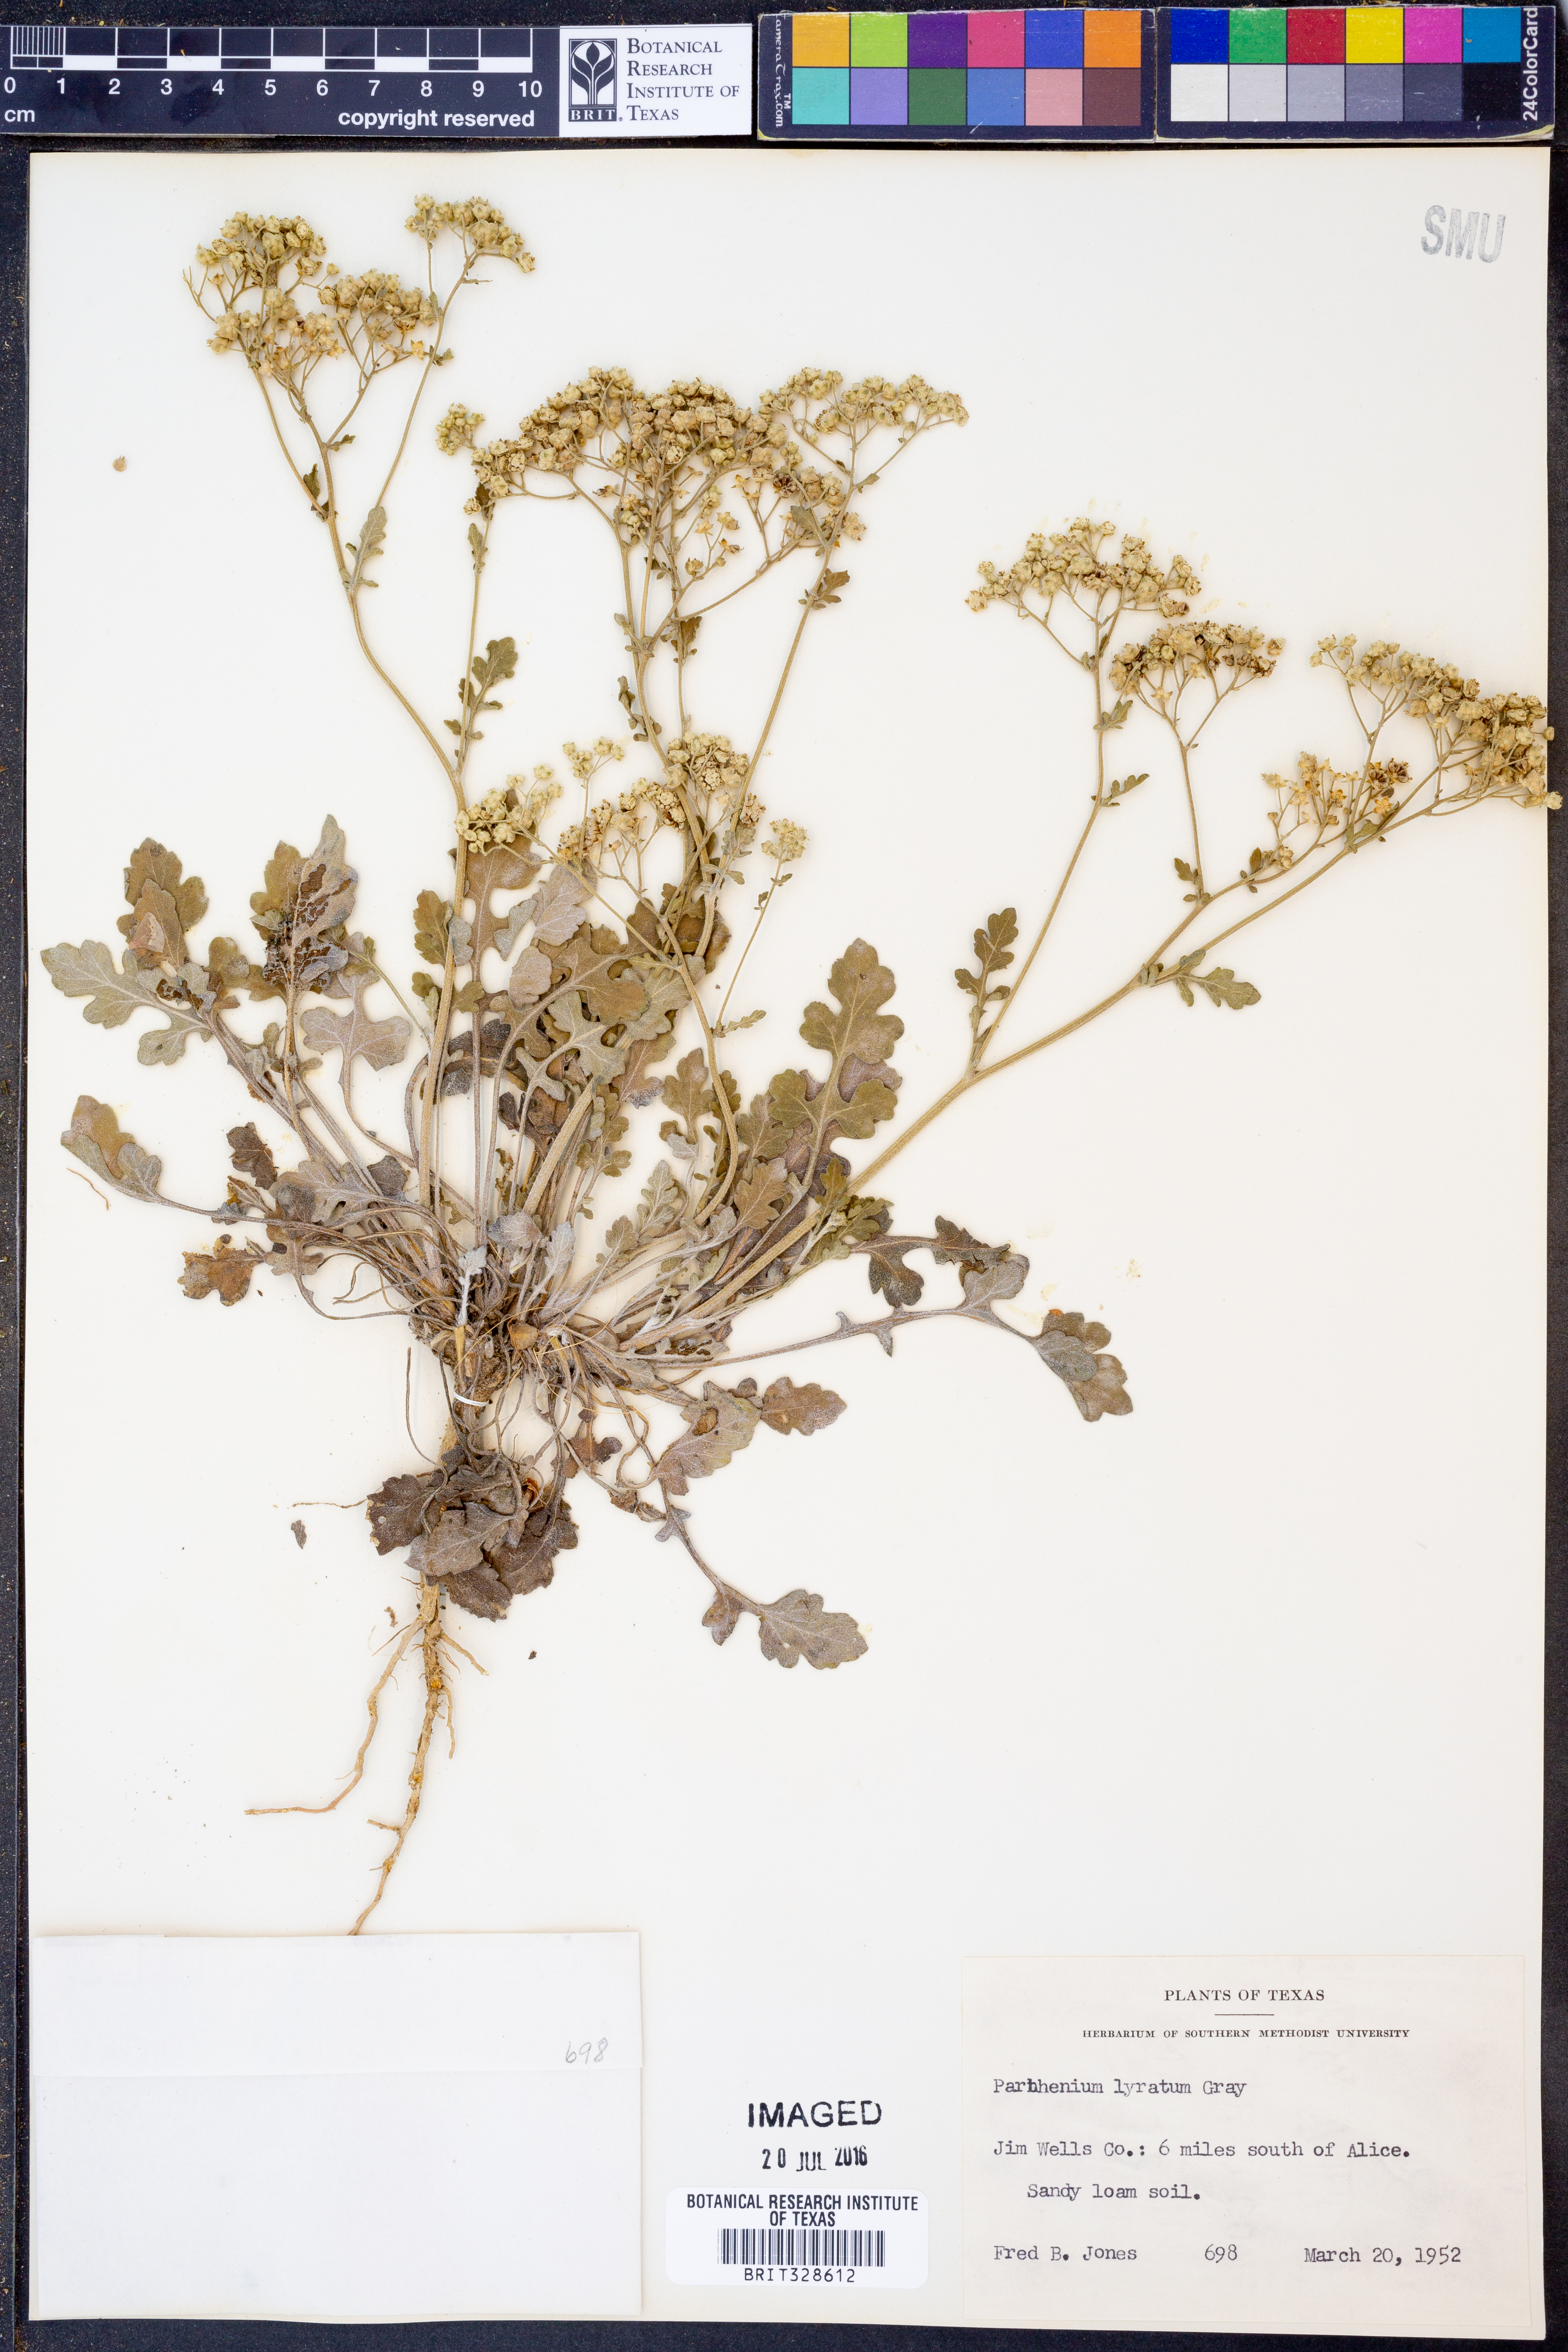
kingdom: Plantae
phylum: Tracheophyta
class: Magnoliopsida
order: Asterales
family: Asteraceae
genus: Parthenium
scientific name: Parthenium confertum
